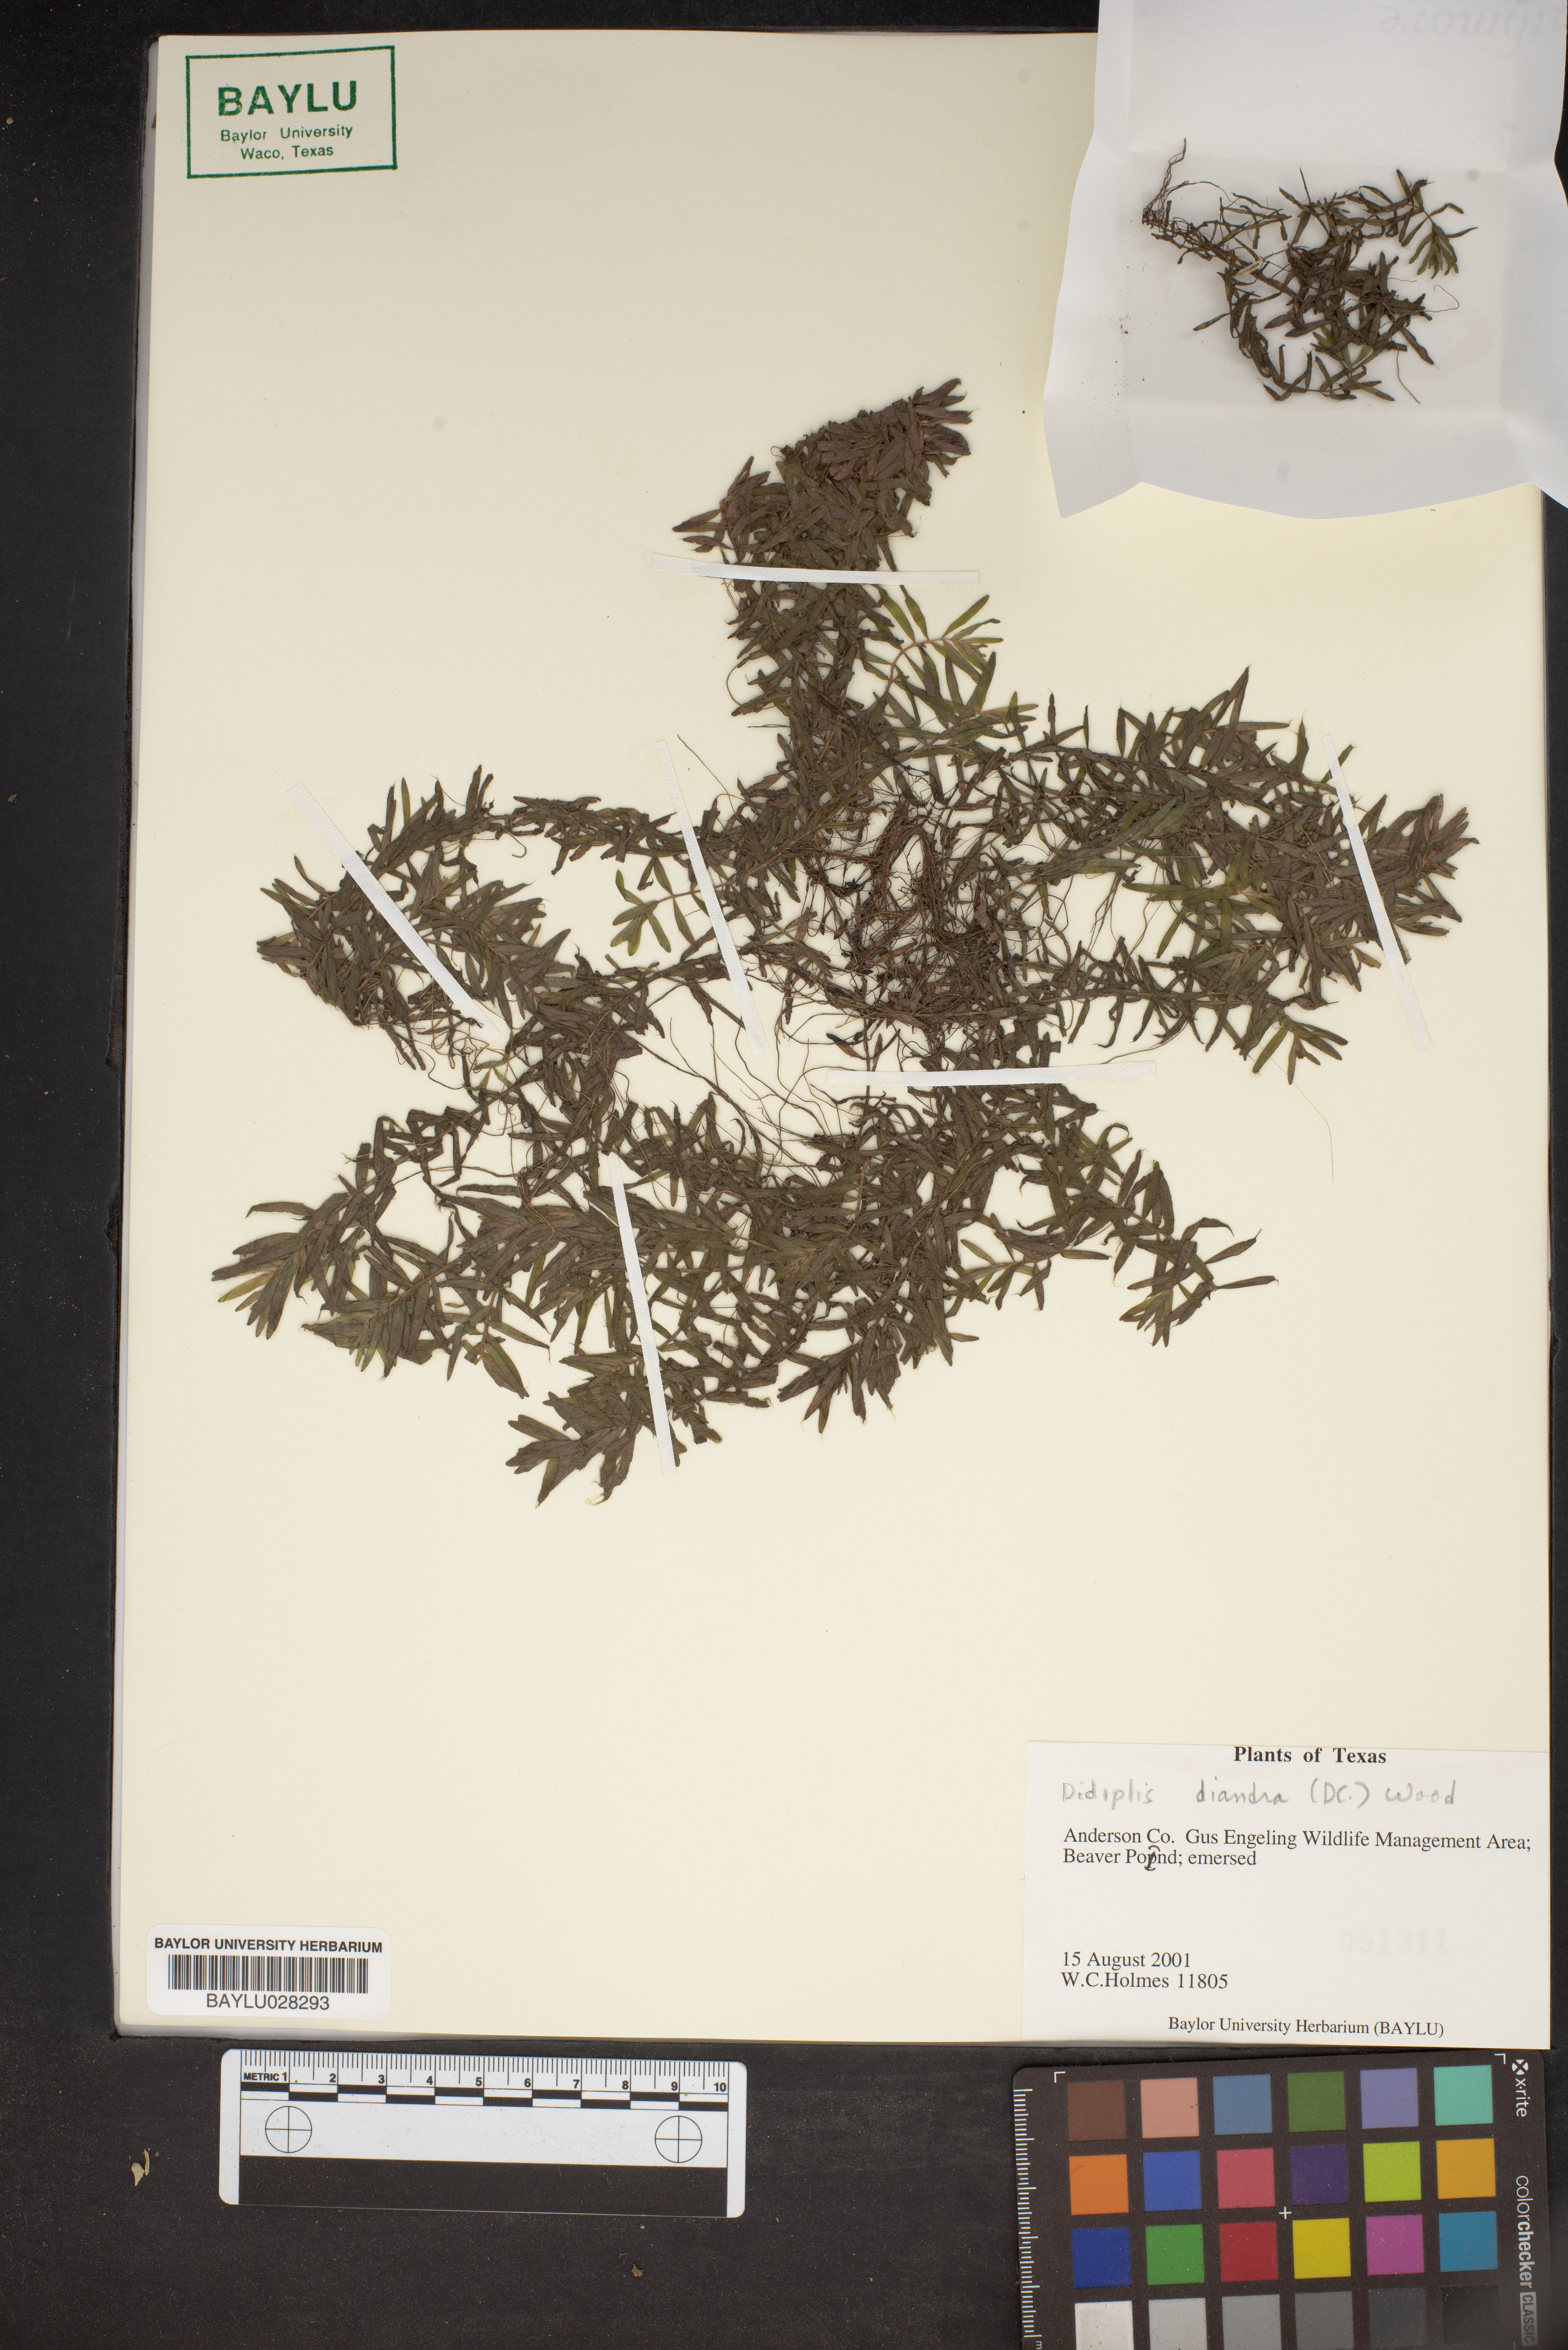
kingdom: Plantae
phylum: Tracheophyta
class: Magnoliopsida
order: Myrtales
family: Lythraceae
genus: Didiplis
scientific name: Didiplis diandra
